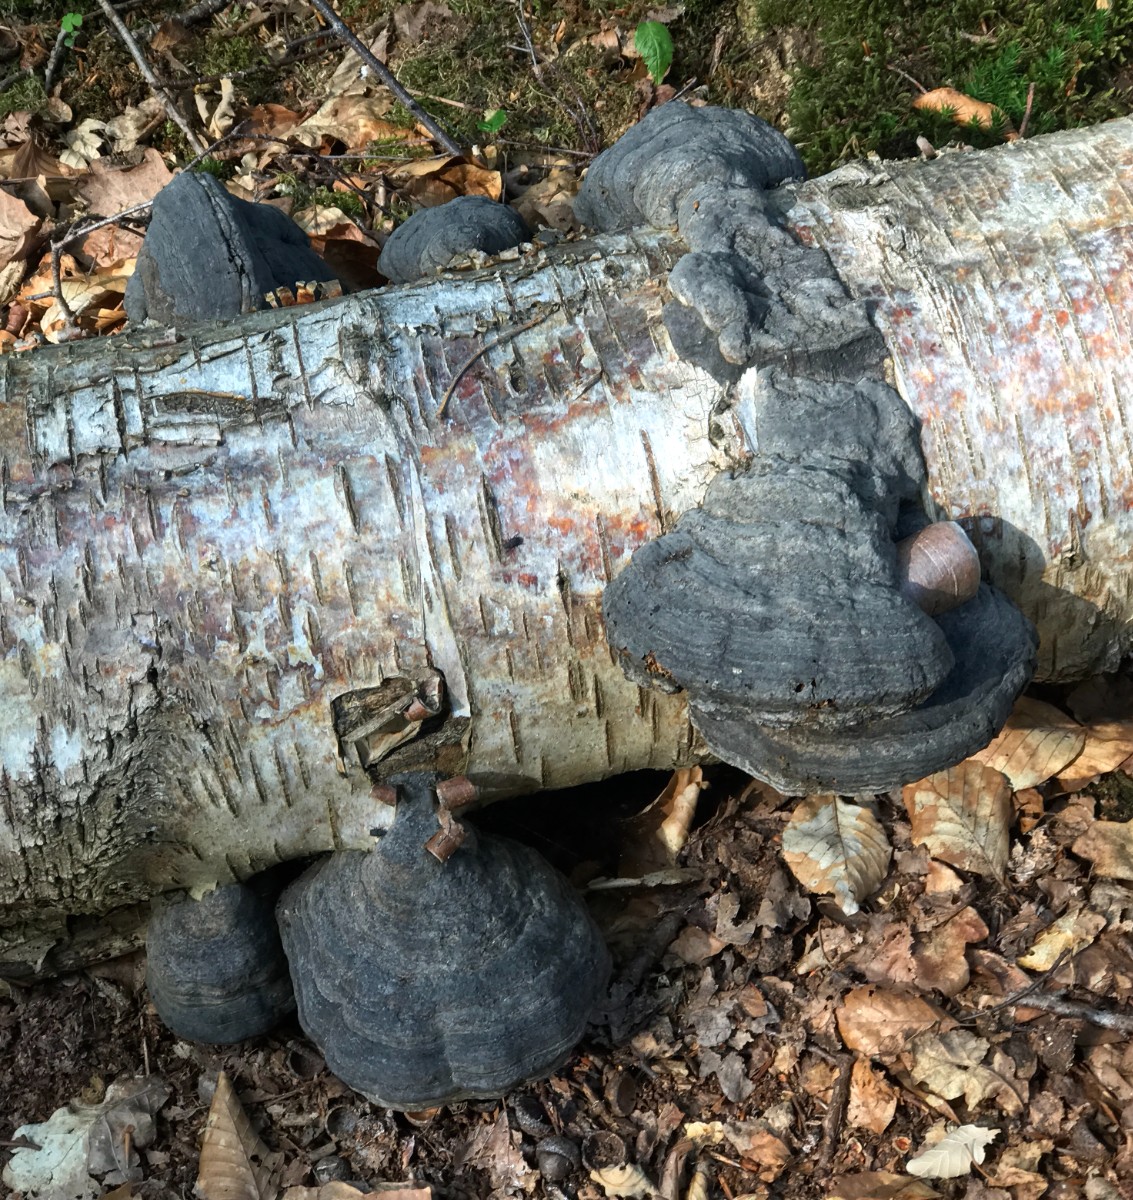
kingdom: Fungi
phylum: Basidiomycota
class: Agaricomycetes
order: Polyporales
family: Polyporaceae
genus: Fomes
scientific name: Fomes fomentarius
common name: tøndersvamp
